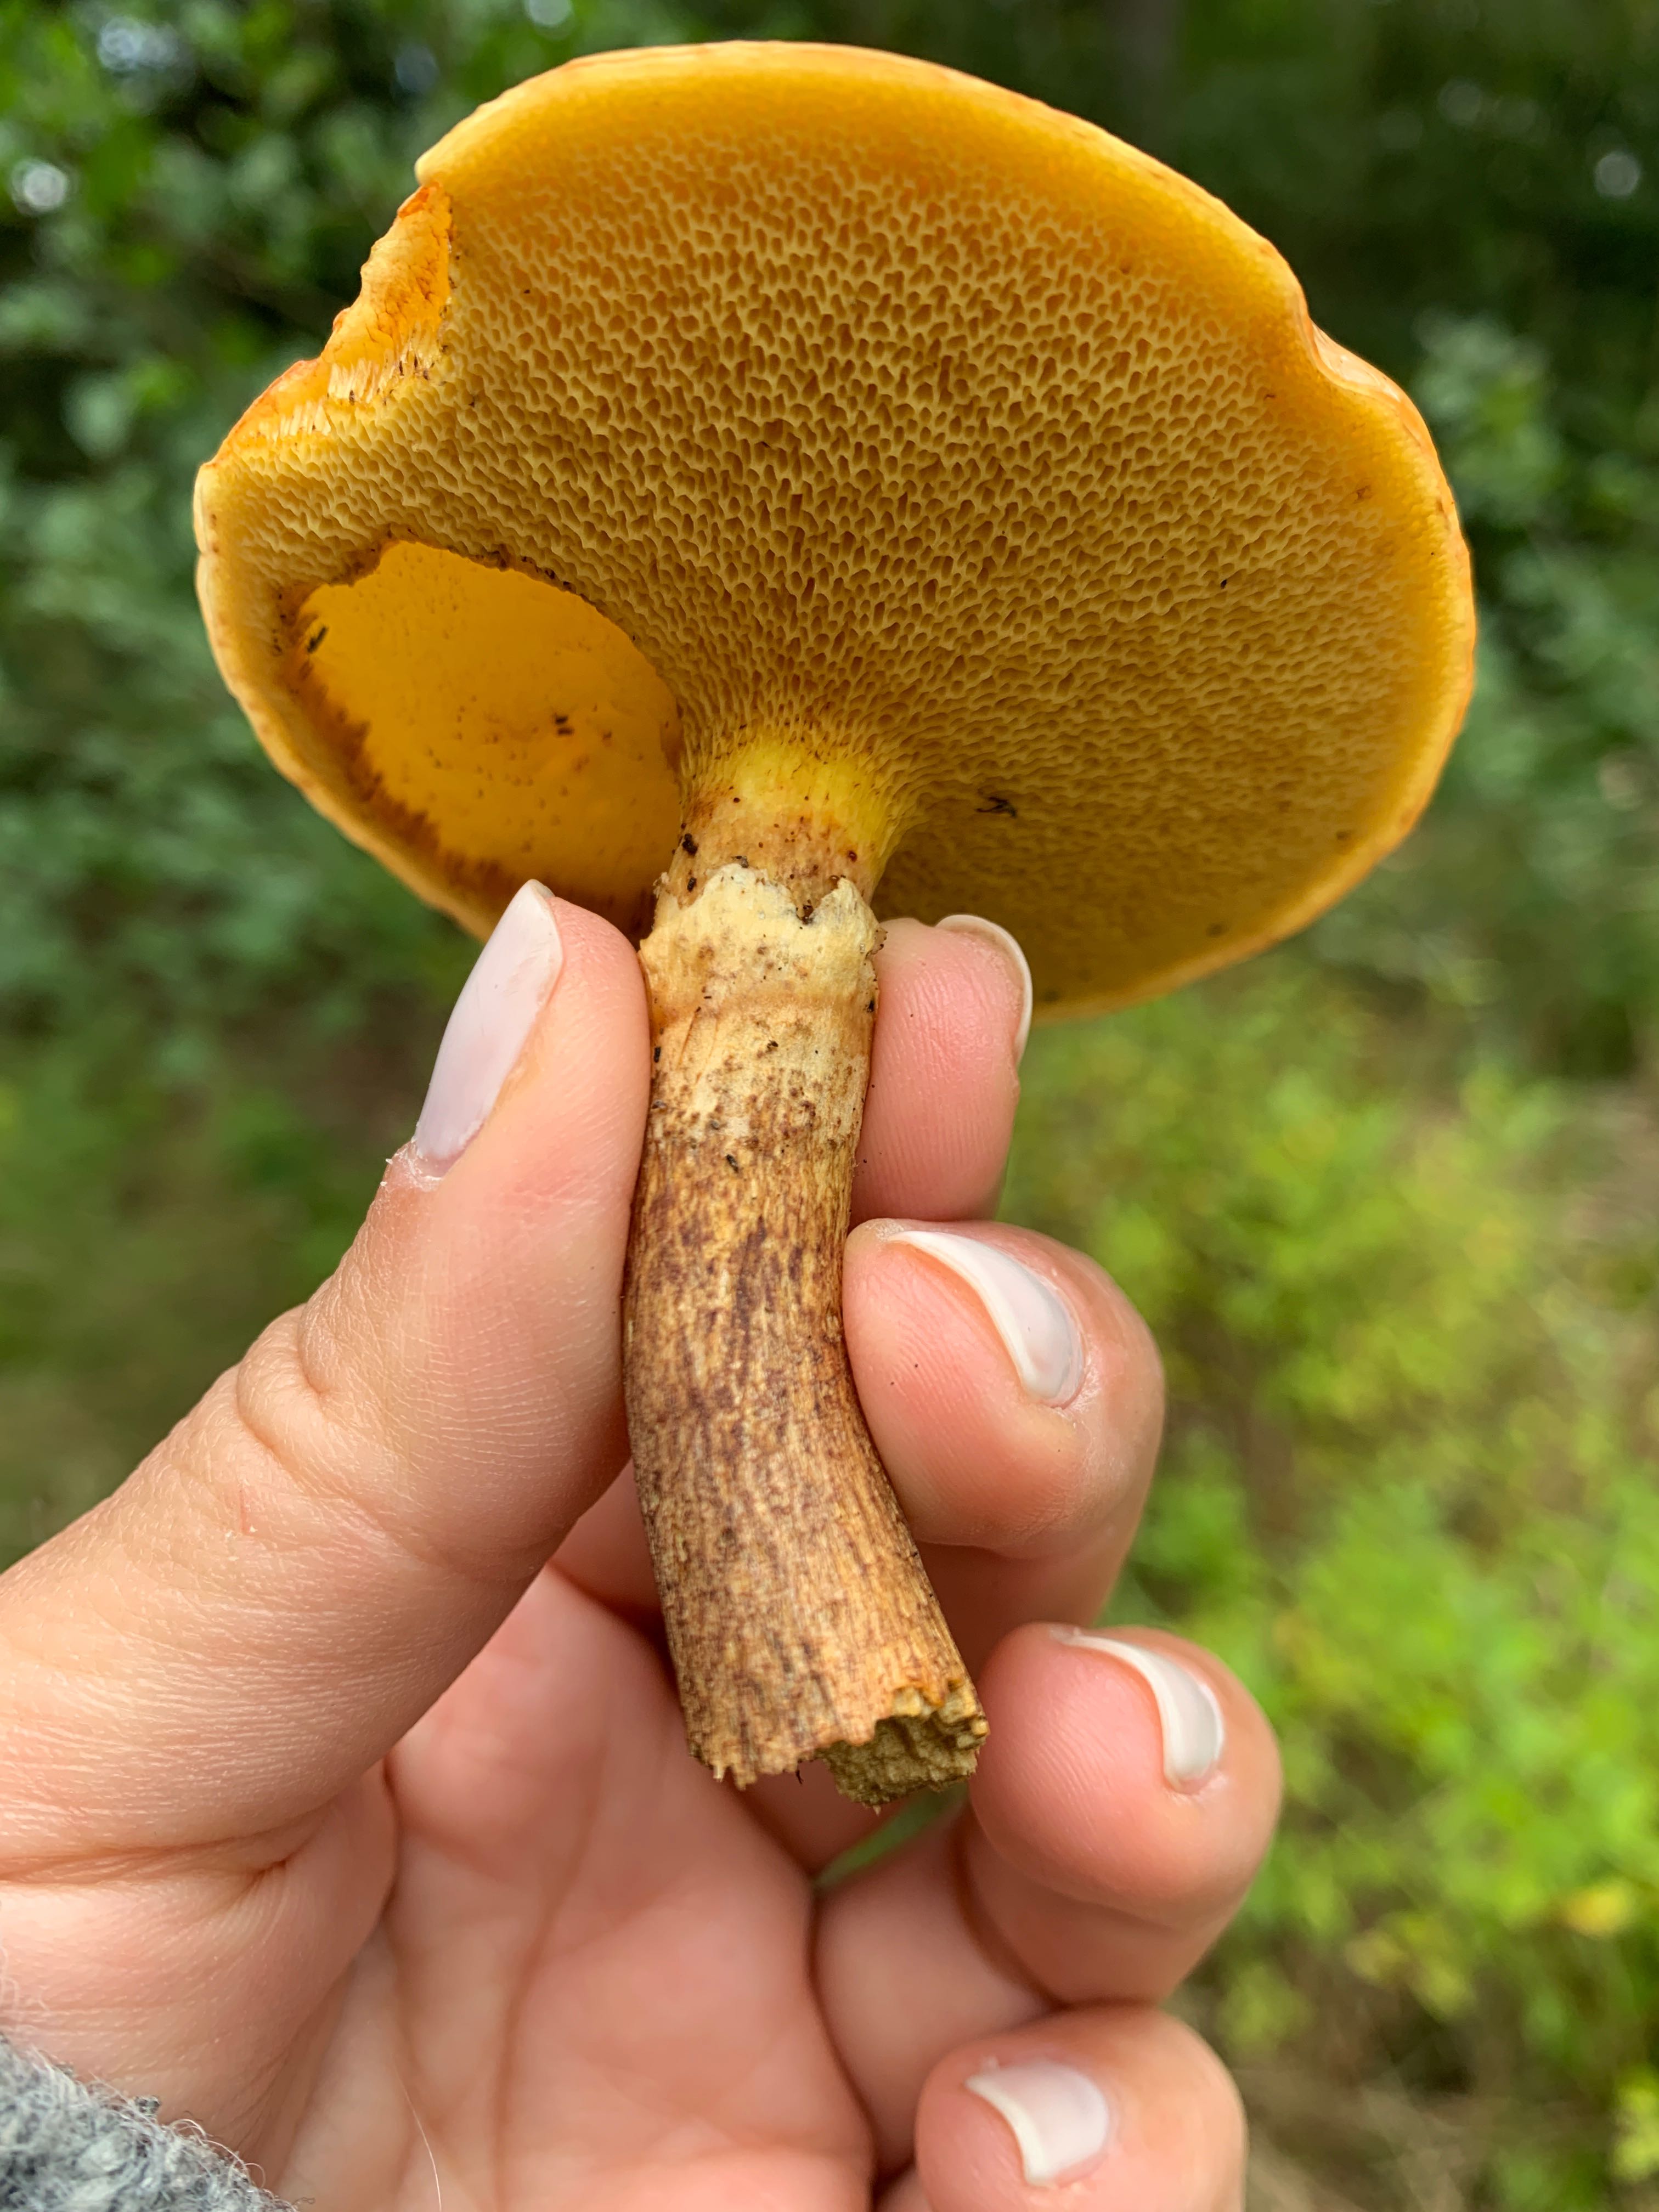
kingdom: Fungi
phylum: Basidiomycota
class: Agaricomycetes
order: Boletales
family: Suillaceae
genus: Suillus
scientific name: Suillus grevillei
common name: lærke-slimrørhat
